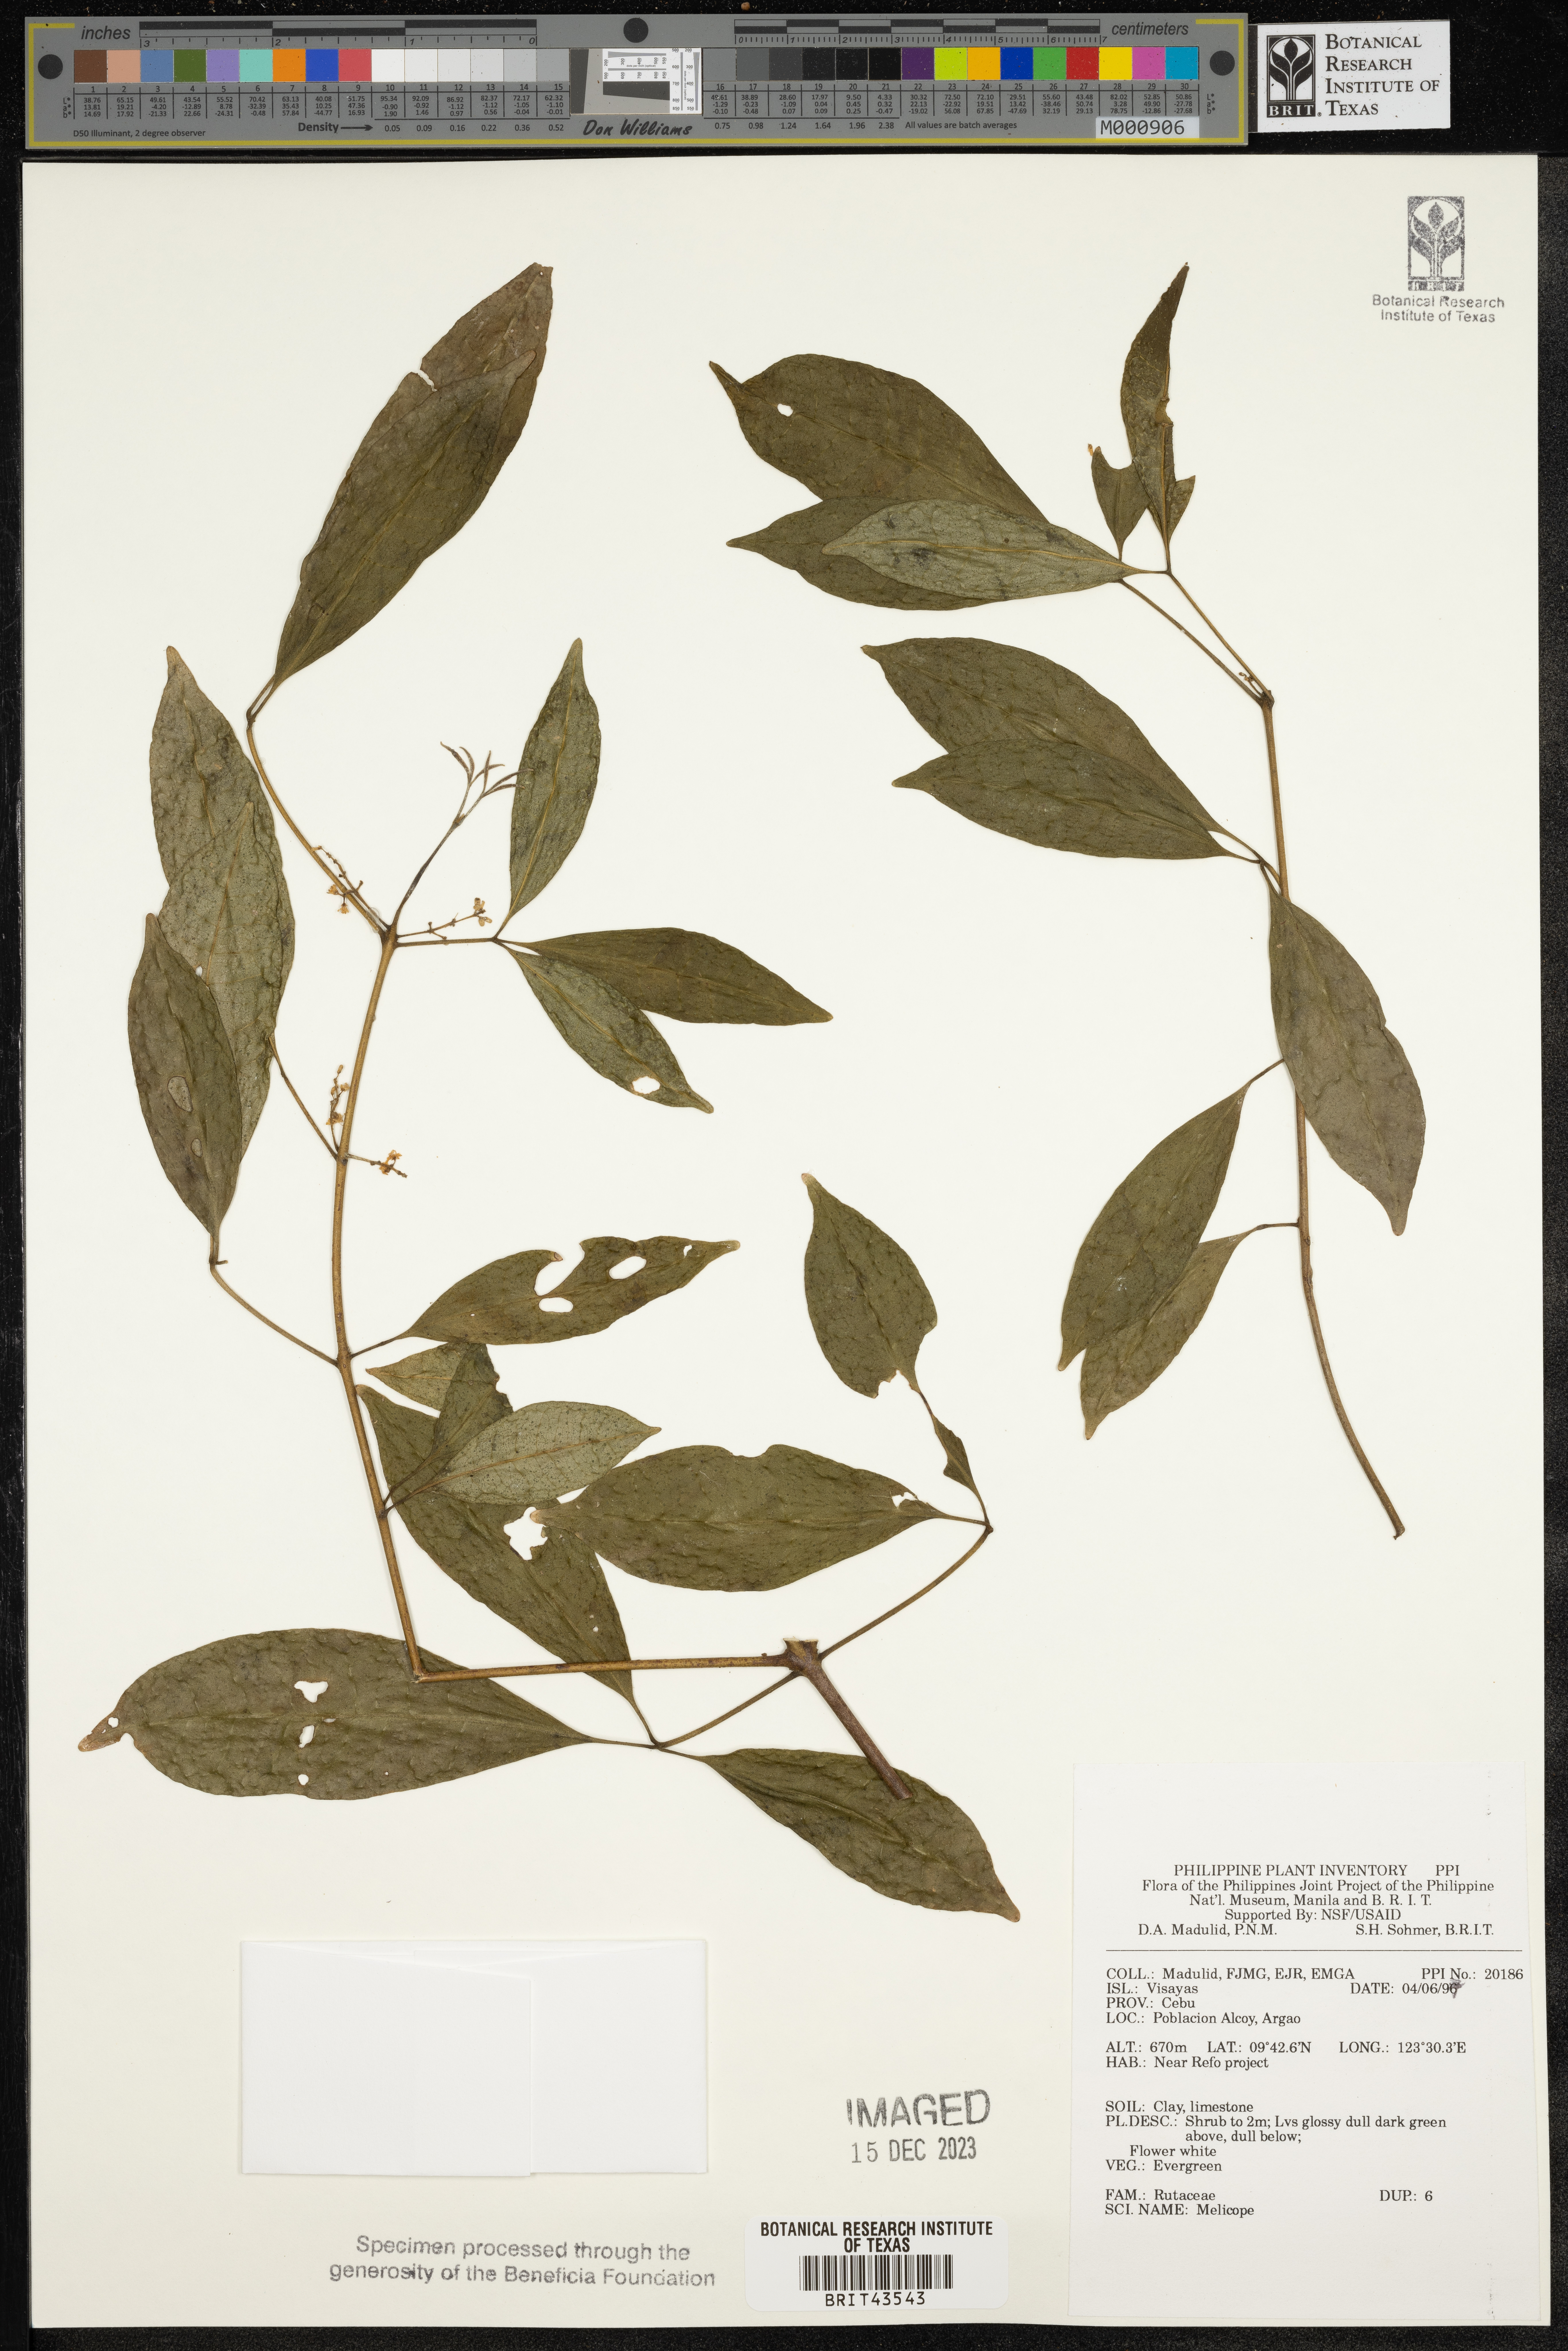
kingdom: Plantae
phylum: Tracheophyta
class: Magnoliopsida
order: Sapindales
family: Rutaceae
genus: Melicope
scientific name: Melicope
